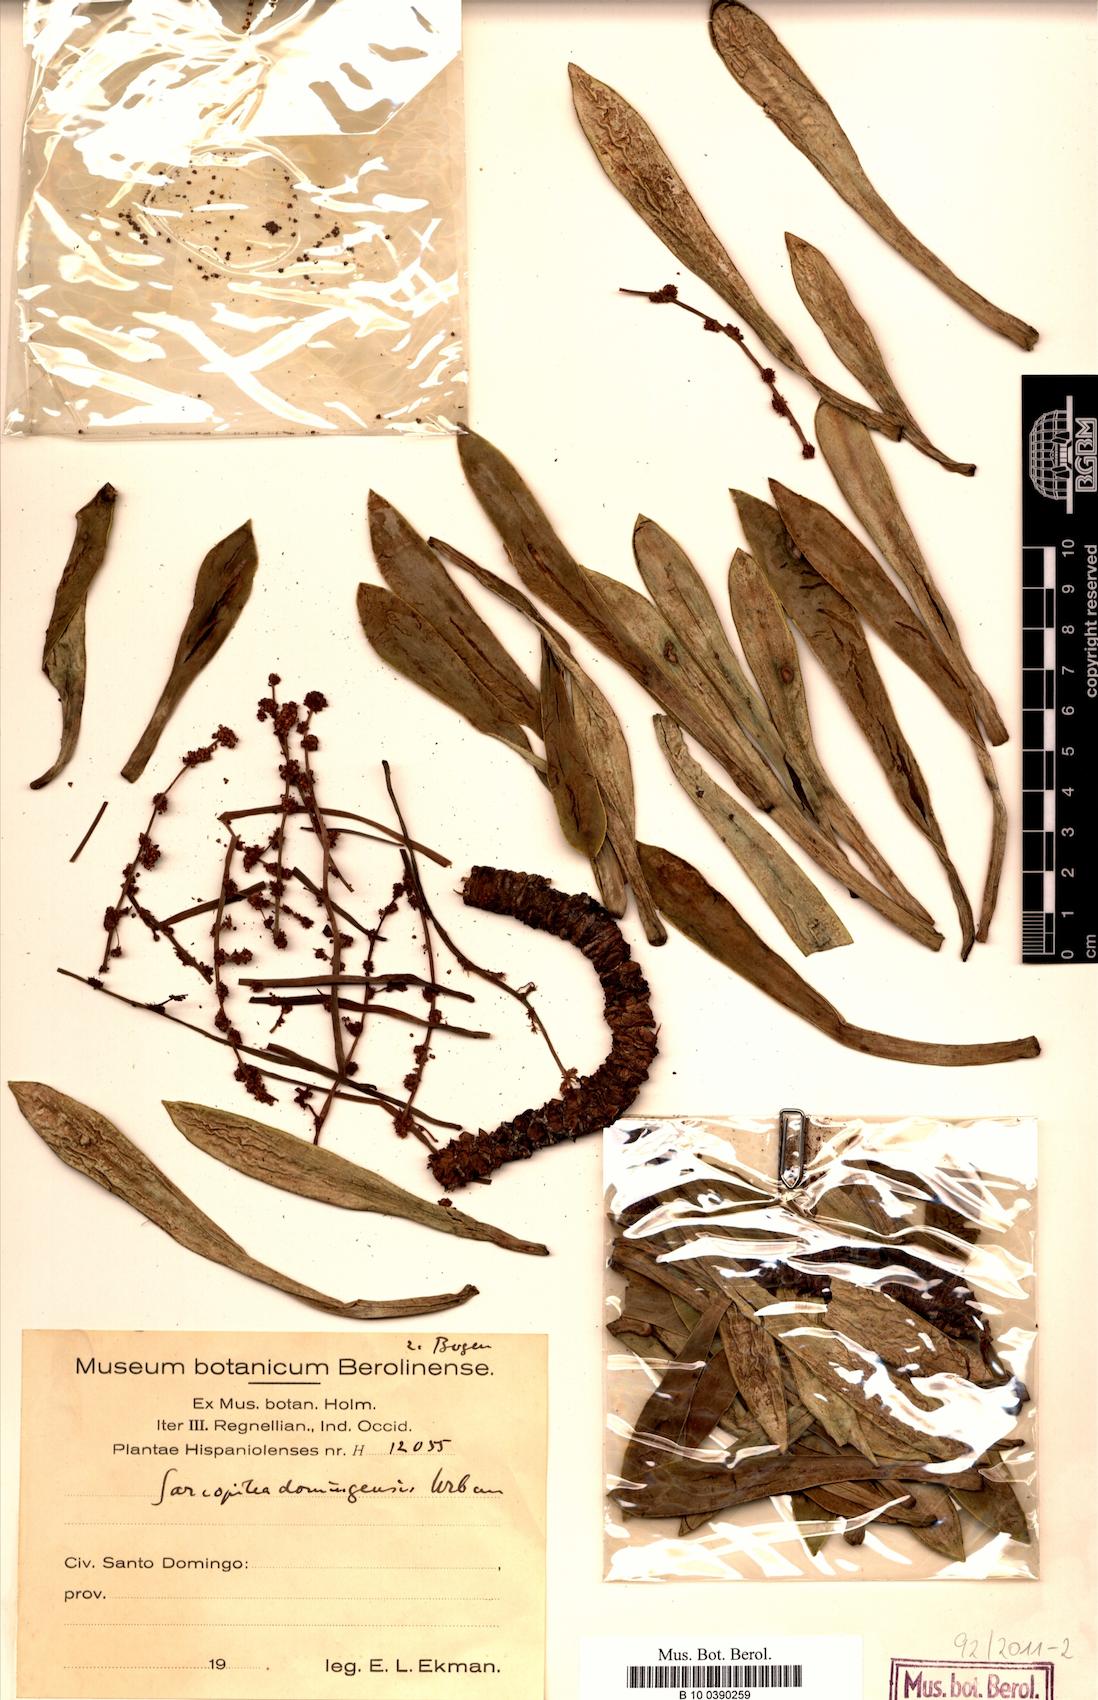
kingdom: Plantae
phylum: Tracheophyta
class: Magnoliopsida
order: Rosales
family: Urticaceae
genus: Pilea
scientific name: Pilea fairchildiana
